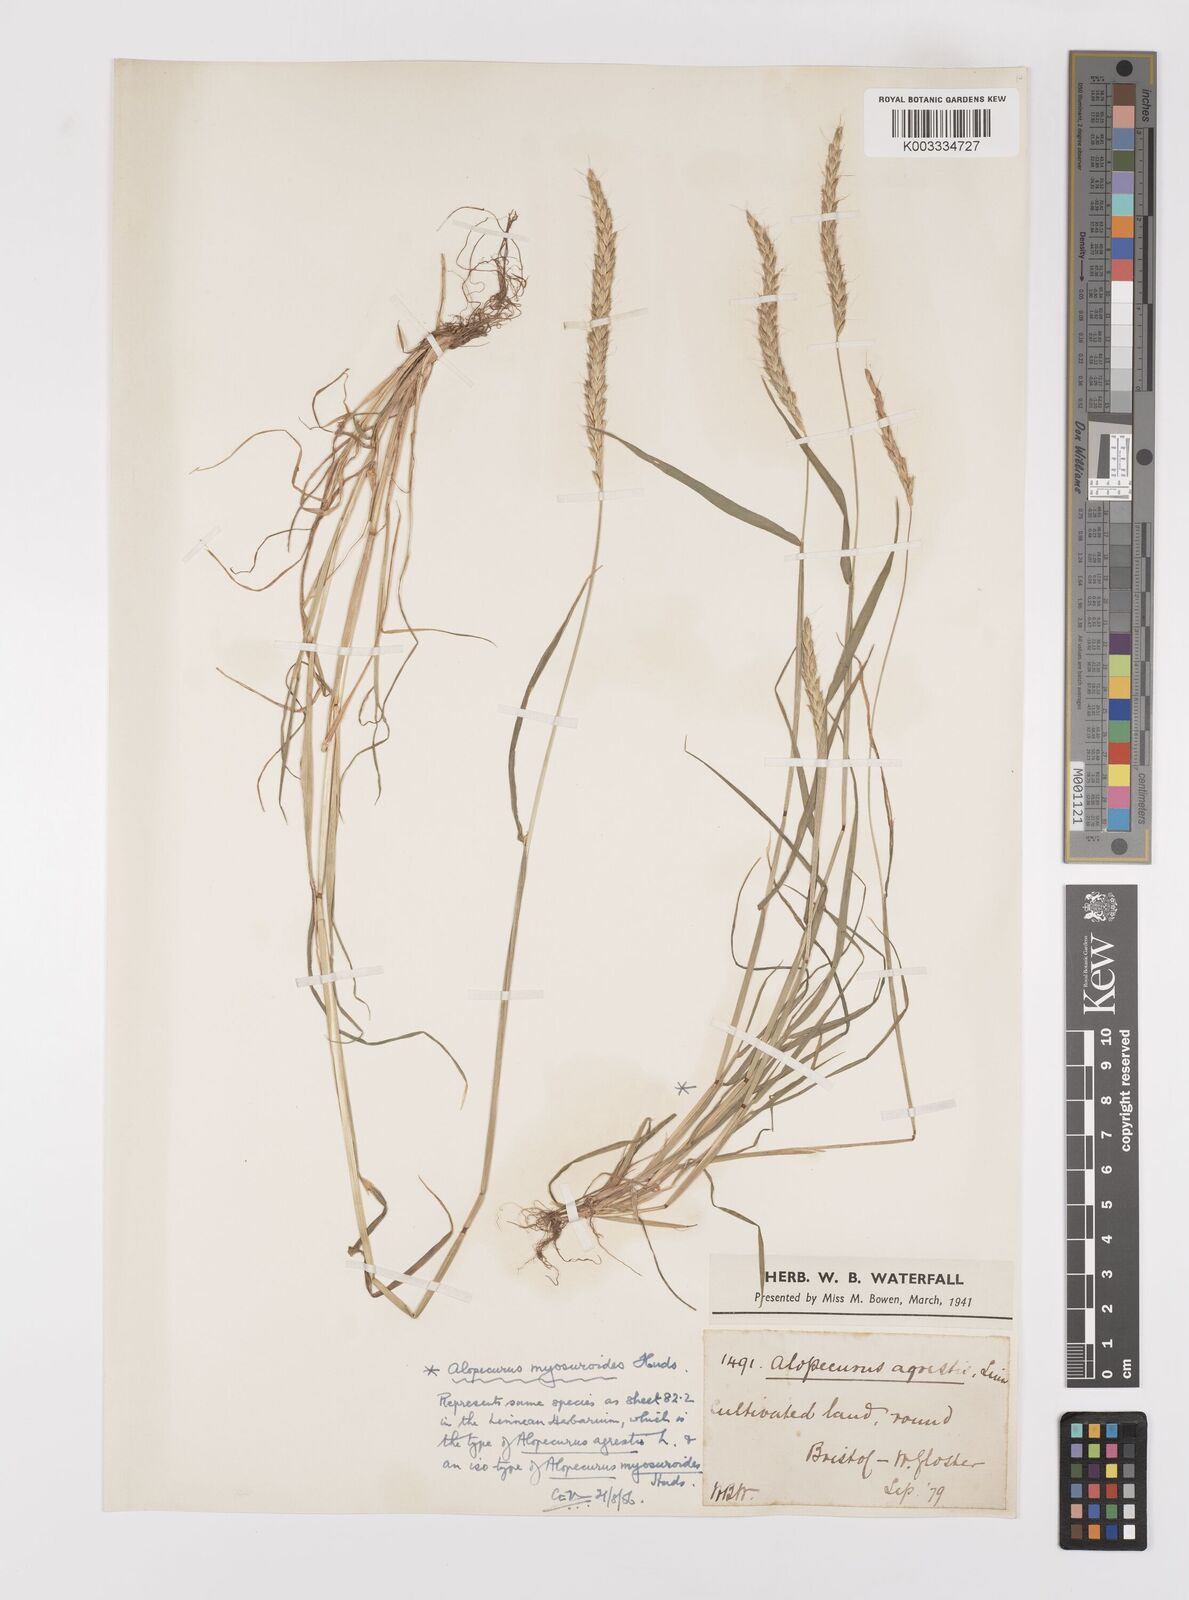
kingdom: Plantae
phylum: Tracheophyta
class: Liliopsida
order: Poales
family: Poaceae
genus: Alopecurus
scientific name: Alopecurus myosuroides
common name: Black-grass
